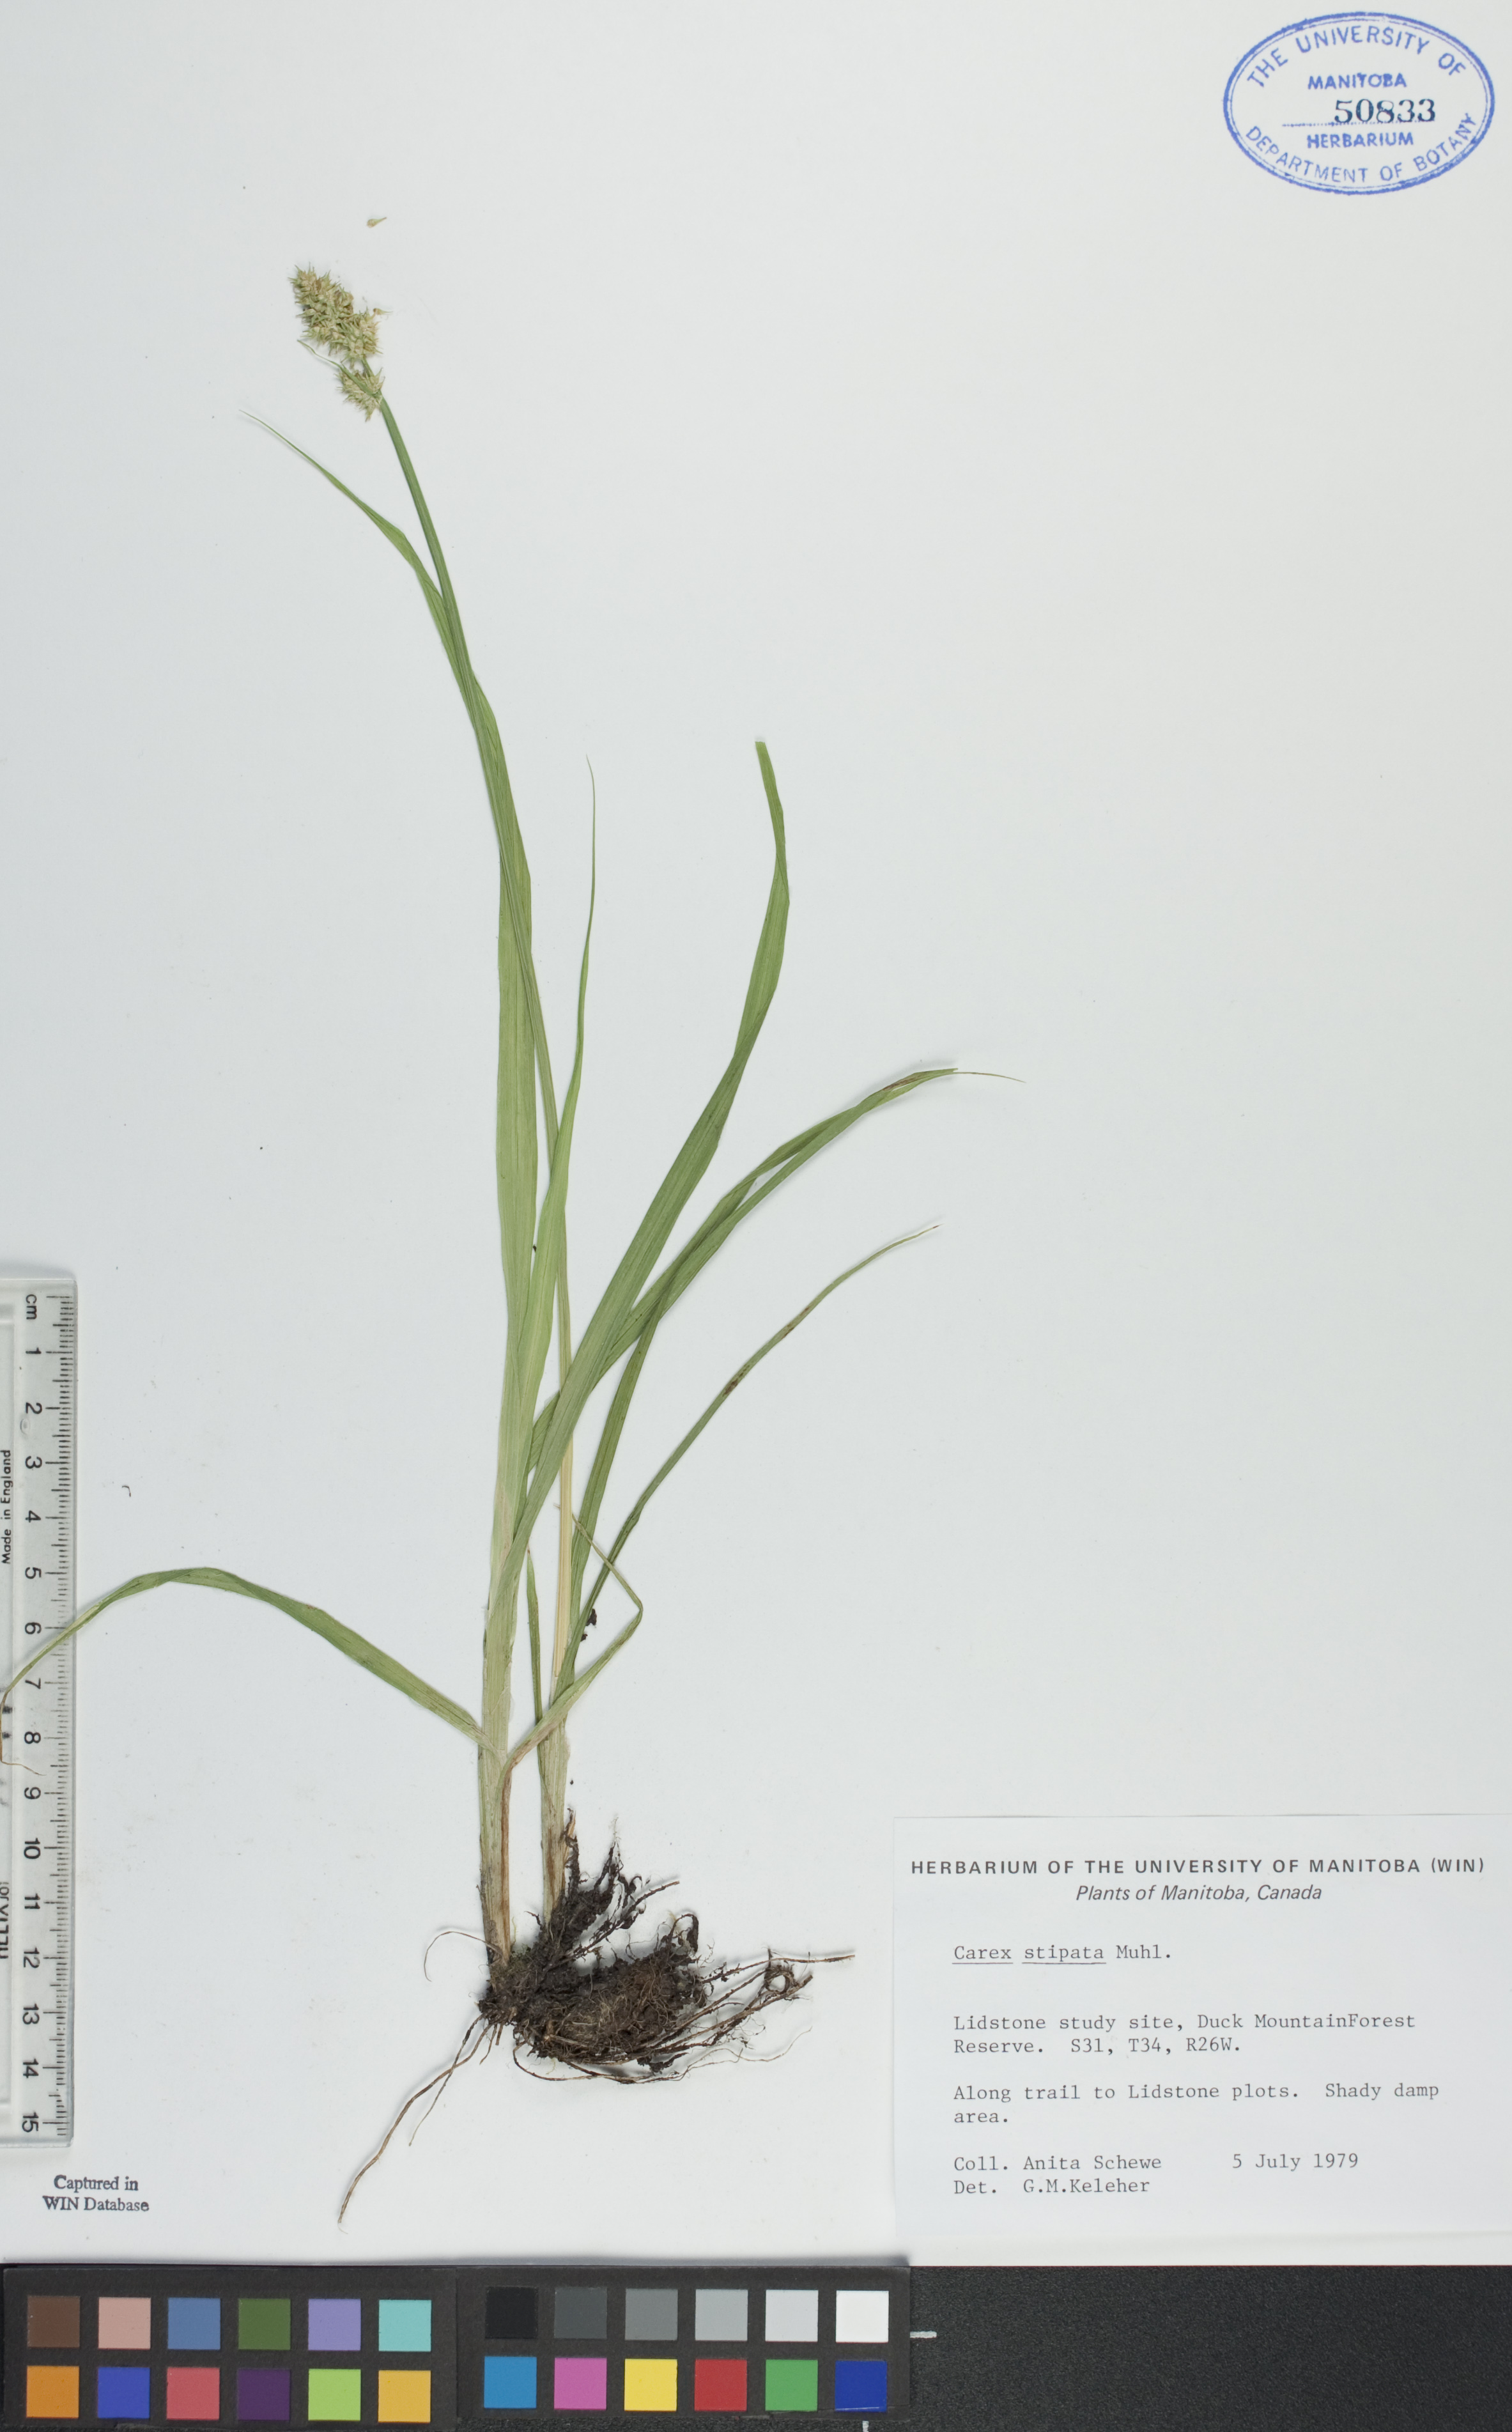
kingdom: Plantae
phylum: Tracheophyta
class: Liliopsida
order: Poales
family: Cyperaceae
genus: Carex
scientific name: Carex stipata
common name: Awl-fruited sedge
